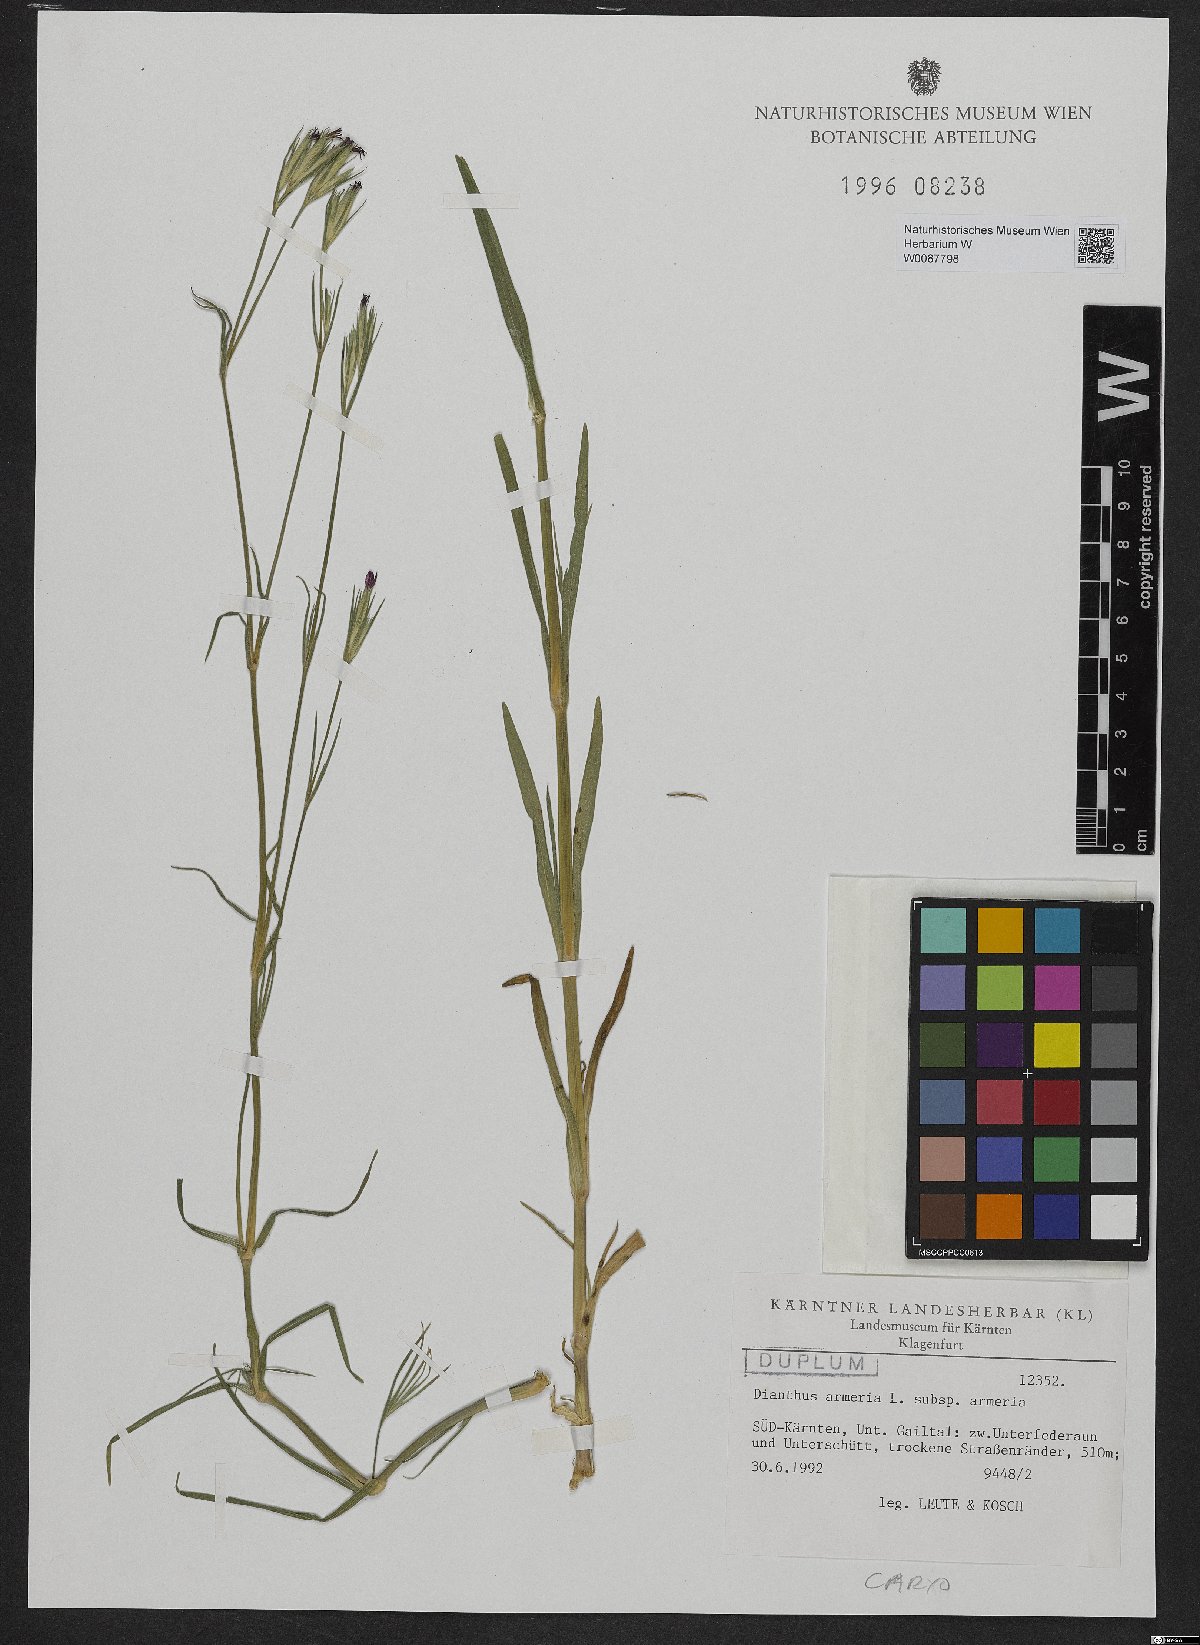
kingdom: Plantae
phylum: Tracheophyta
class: Magnoliopsida
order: Caryophyllales
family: Caryophyllaceae
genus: Dianthus
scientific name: Dianthus armeria
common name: Deptford pink
